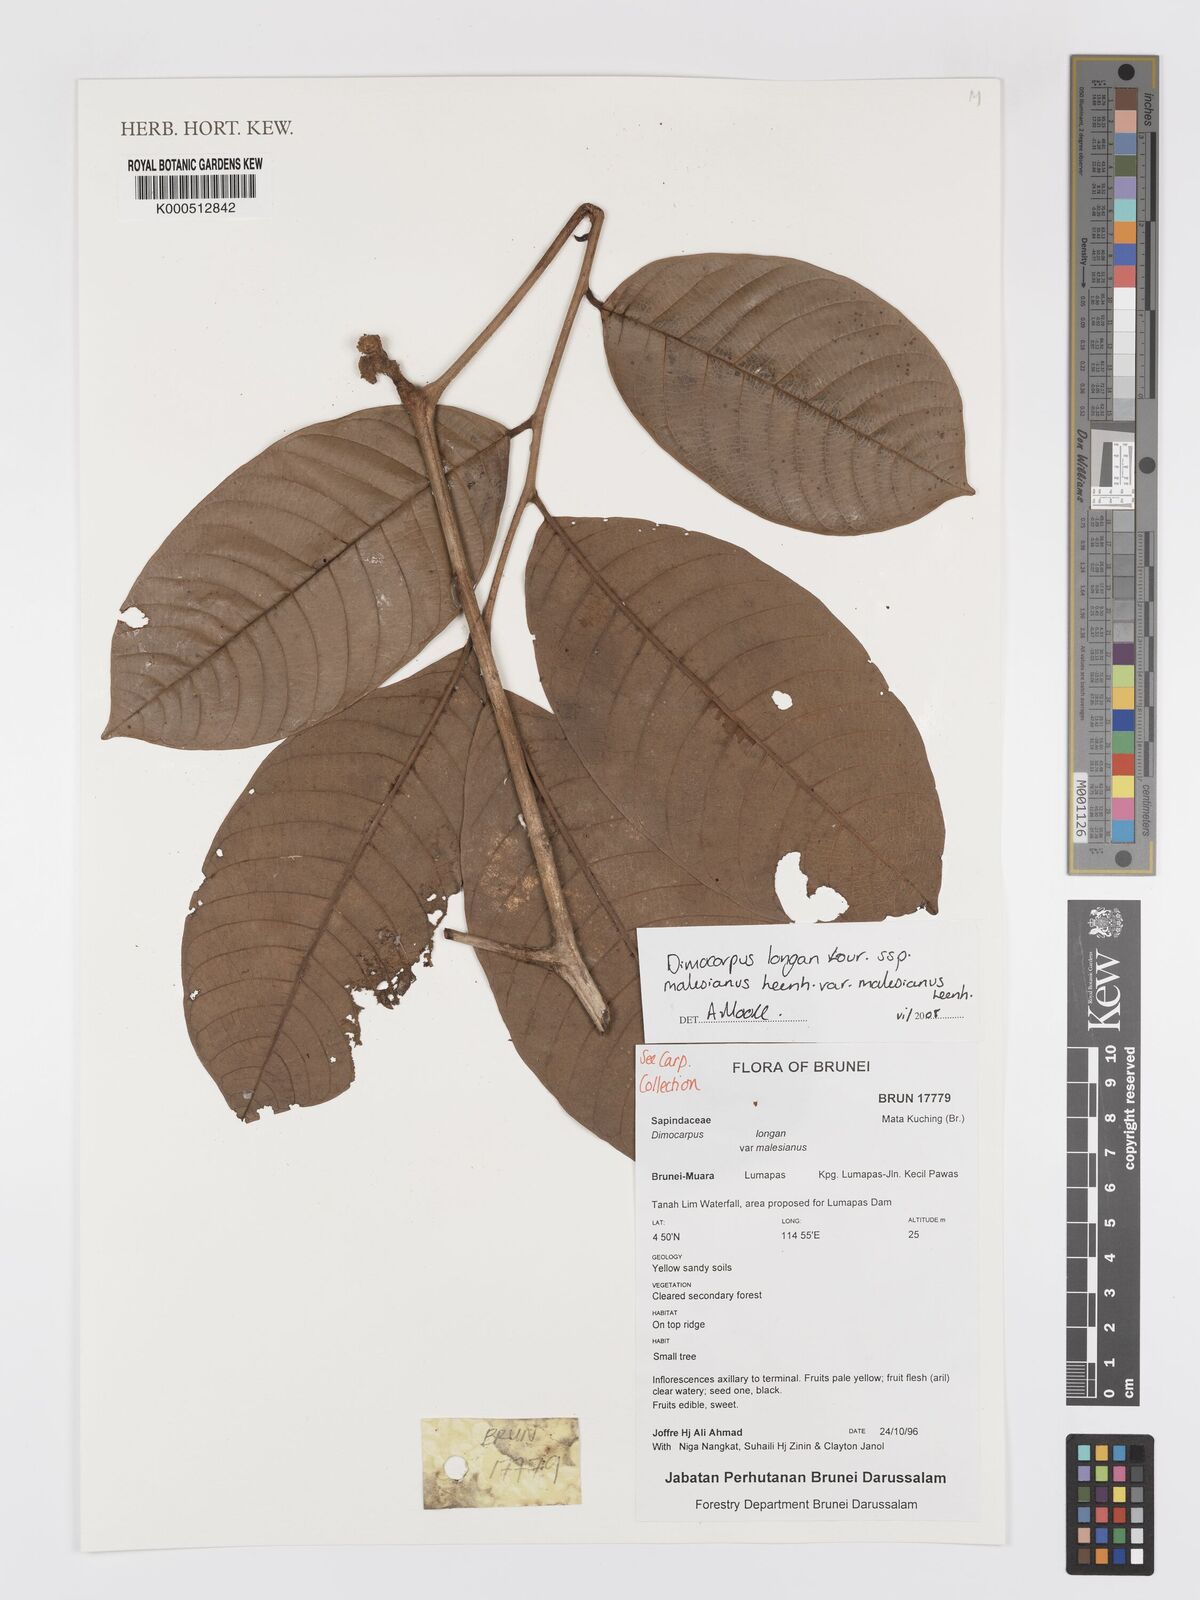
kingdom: Plantae
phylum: Tracheophyta
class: Magnoliopsida
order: Sapindales
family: Sapindaceae
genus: Dimocarpus
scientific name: Dimocarpus malesianus
